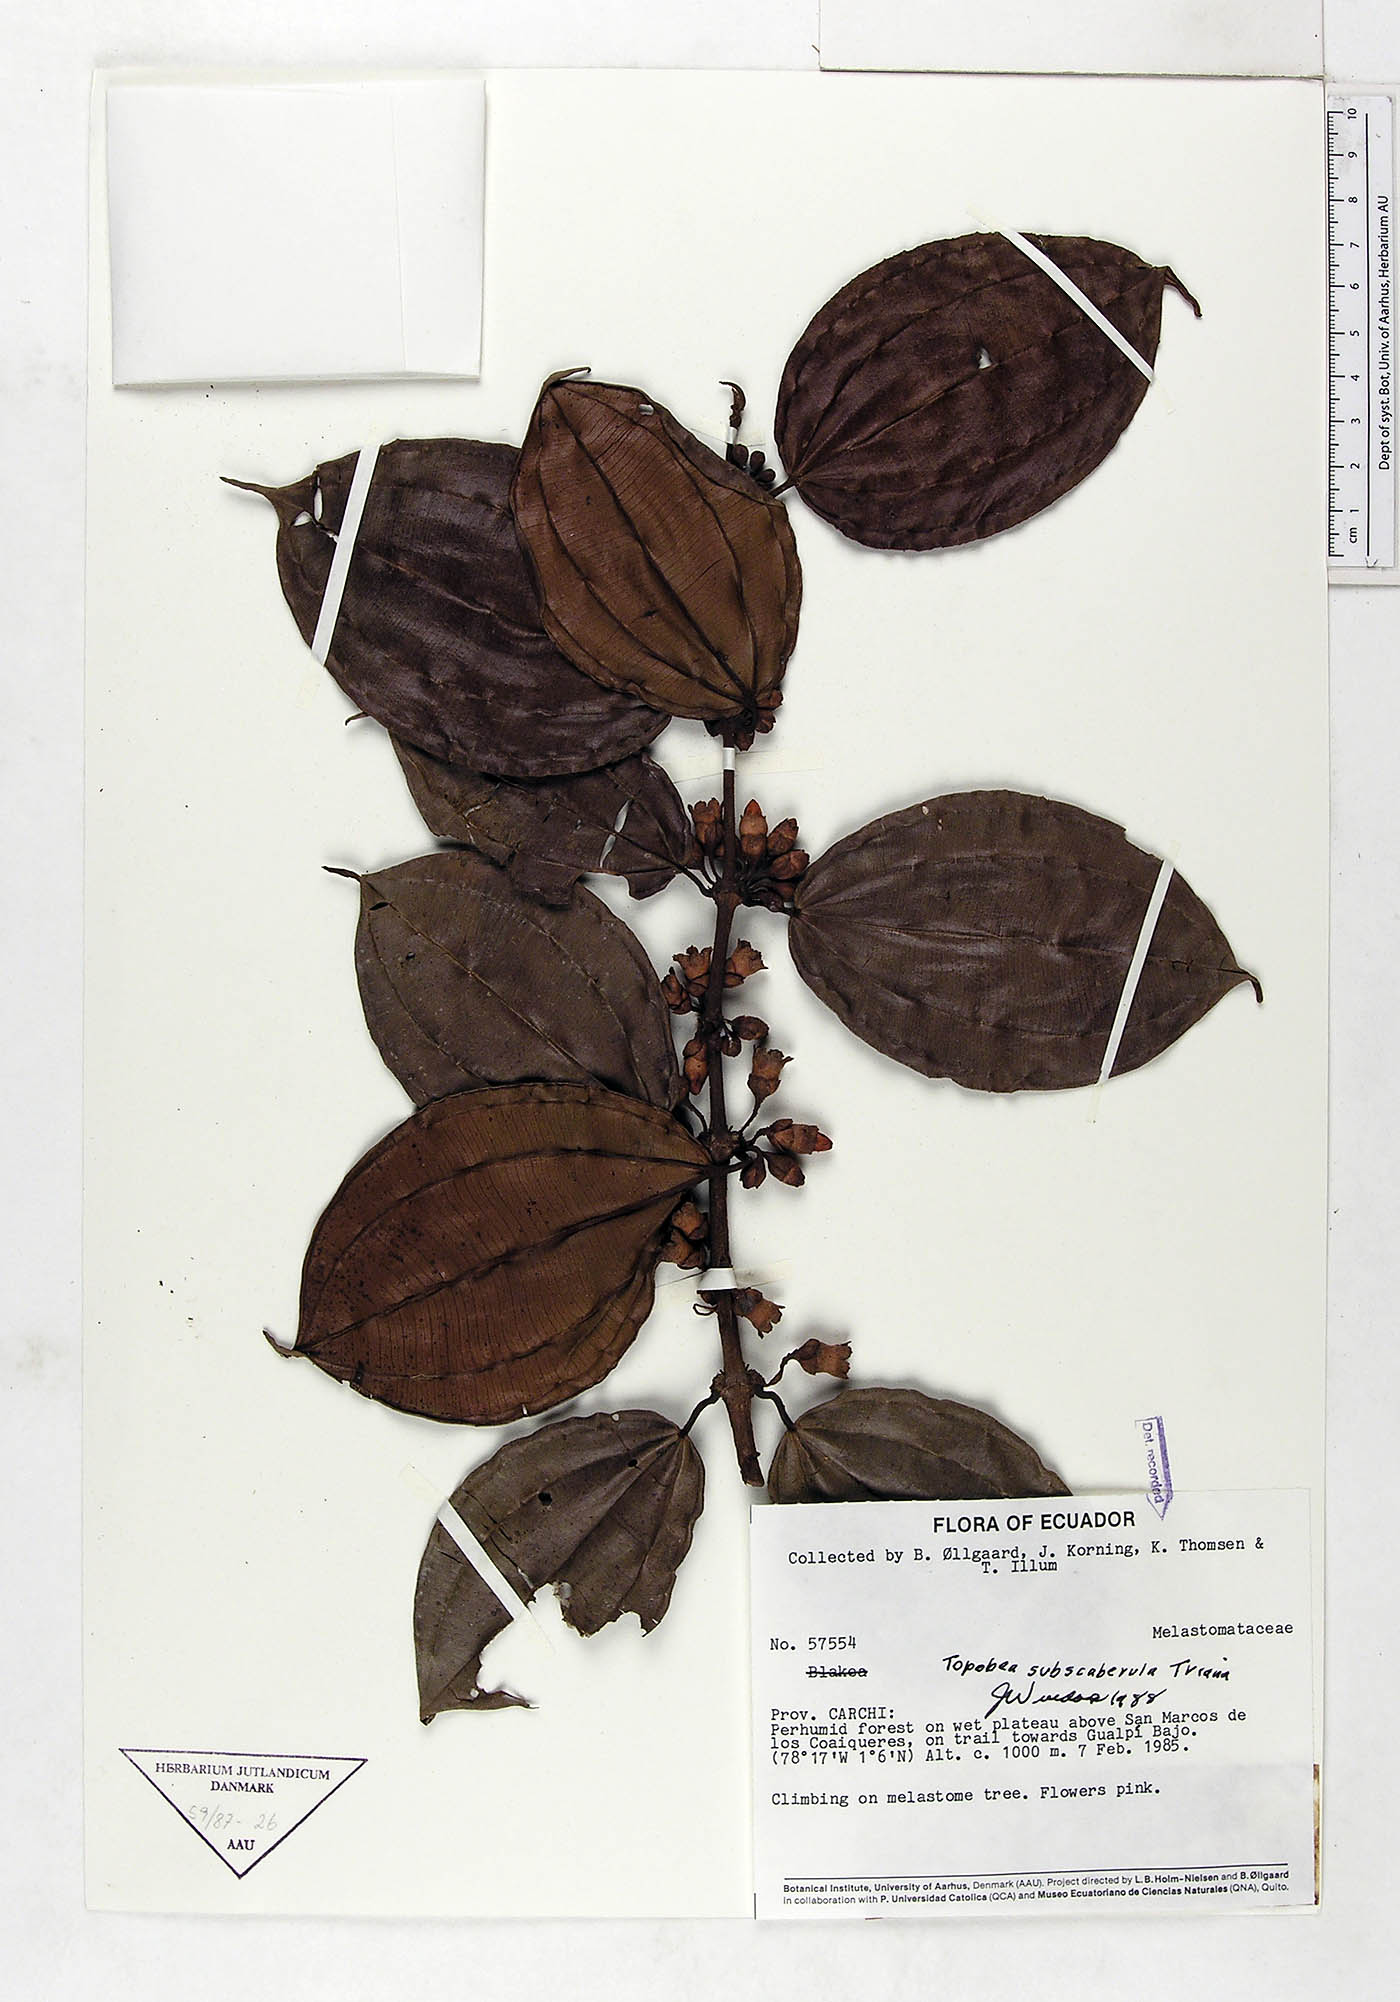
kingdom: Plantae
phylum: Tracheophyta
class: Magnoliopsida
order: Myrtales
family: Melastomataceae
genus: Blakea
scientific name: Blakea Topobea subscaberula
